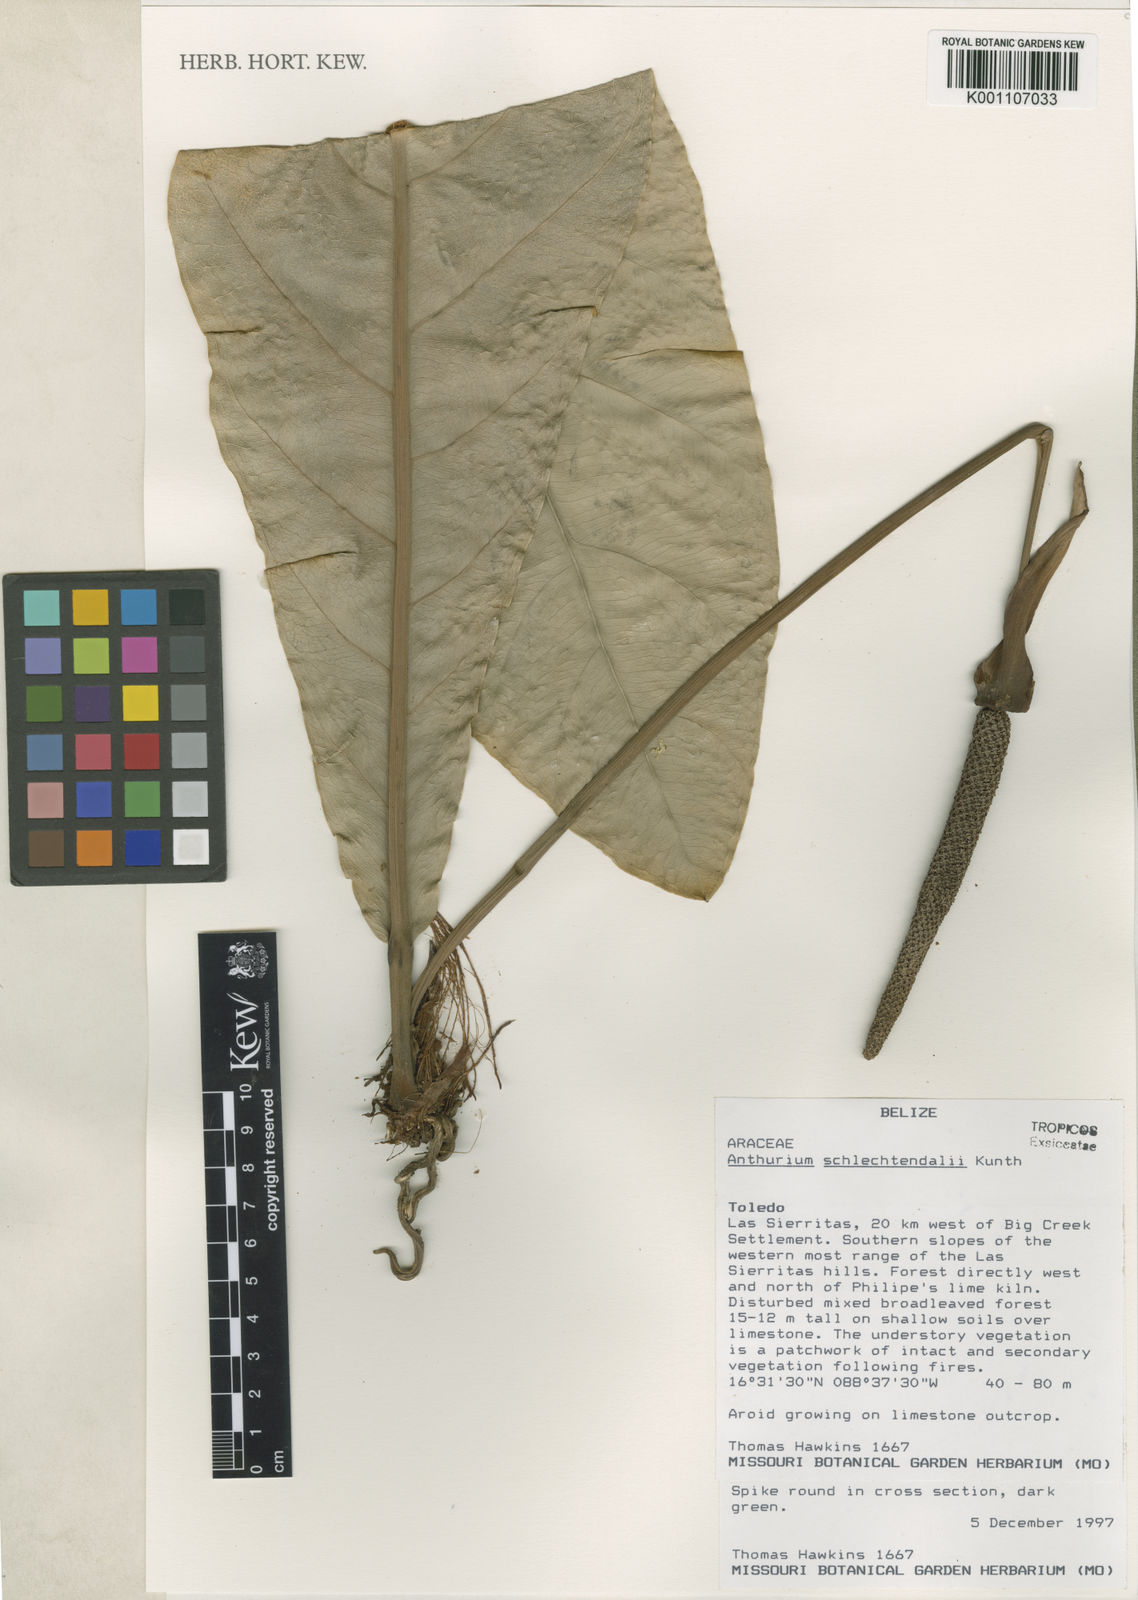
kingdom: Plantae
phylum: Tracheophyta
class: Liliopsida
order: Alismatales
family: Araceae
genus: Anthurium
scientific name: Anthurium schlechtendalii
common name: Laceleaf
